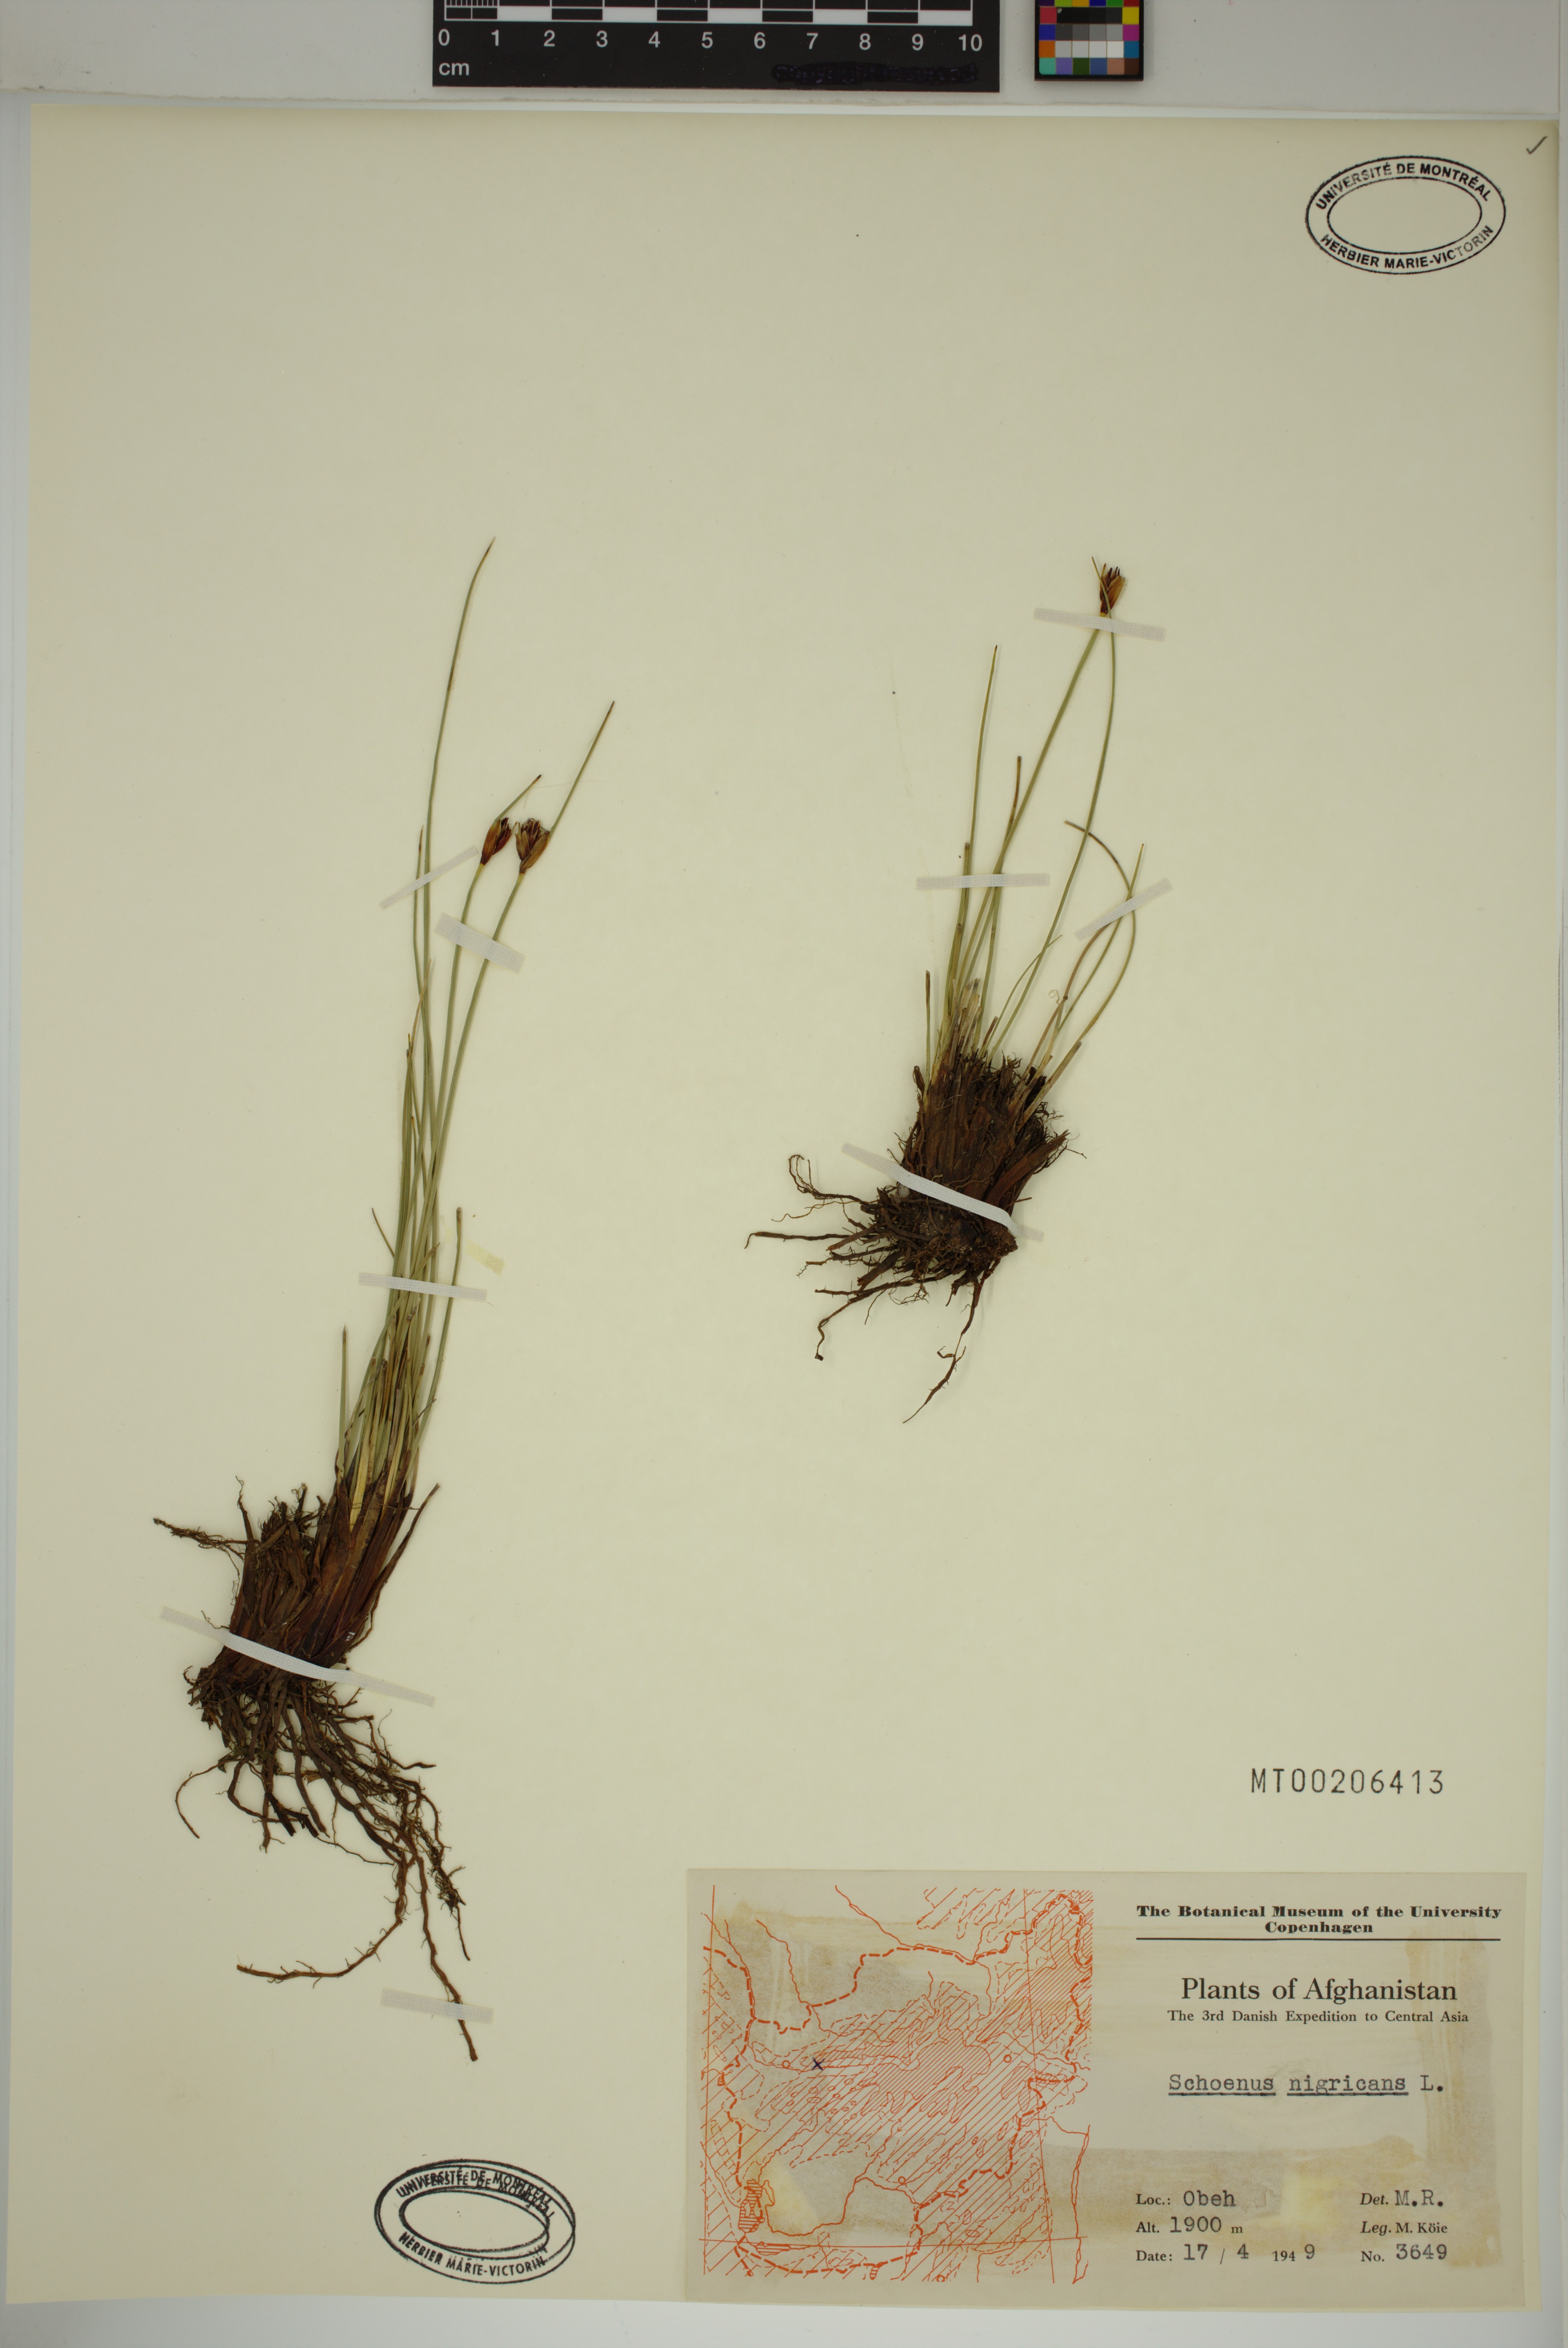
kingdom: Plantae
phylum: Tracheophyta
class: Liliopsida
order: Poales
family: Cyperaceae
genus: Schoenus
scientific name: Schoenus nigricans
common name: Black bog-rush
